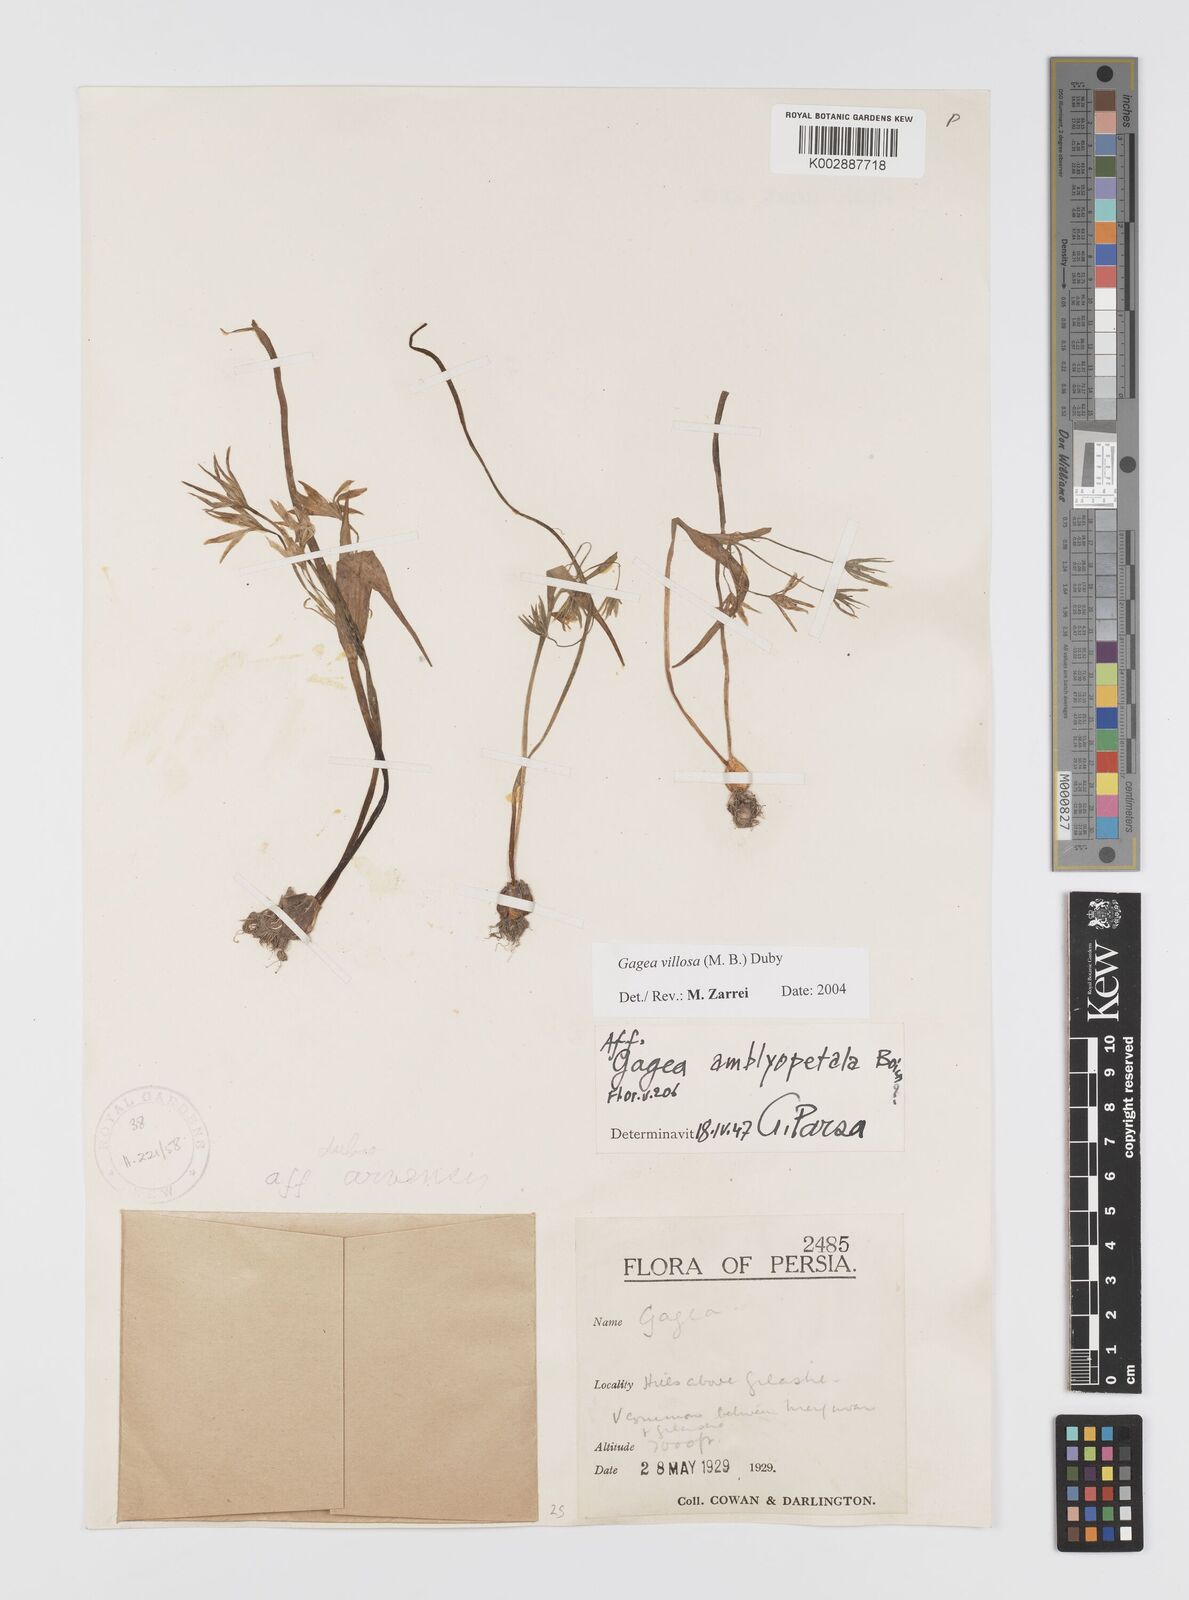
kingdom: Plantae
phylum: Tracheophyta
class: Liliopsida
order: Liliales
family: Liliaceae
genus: Gagea
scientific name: Gagea minima
